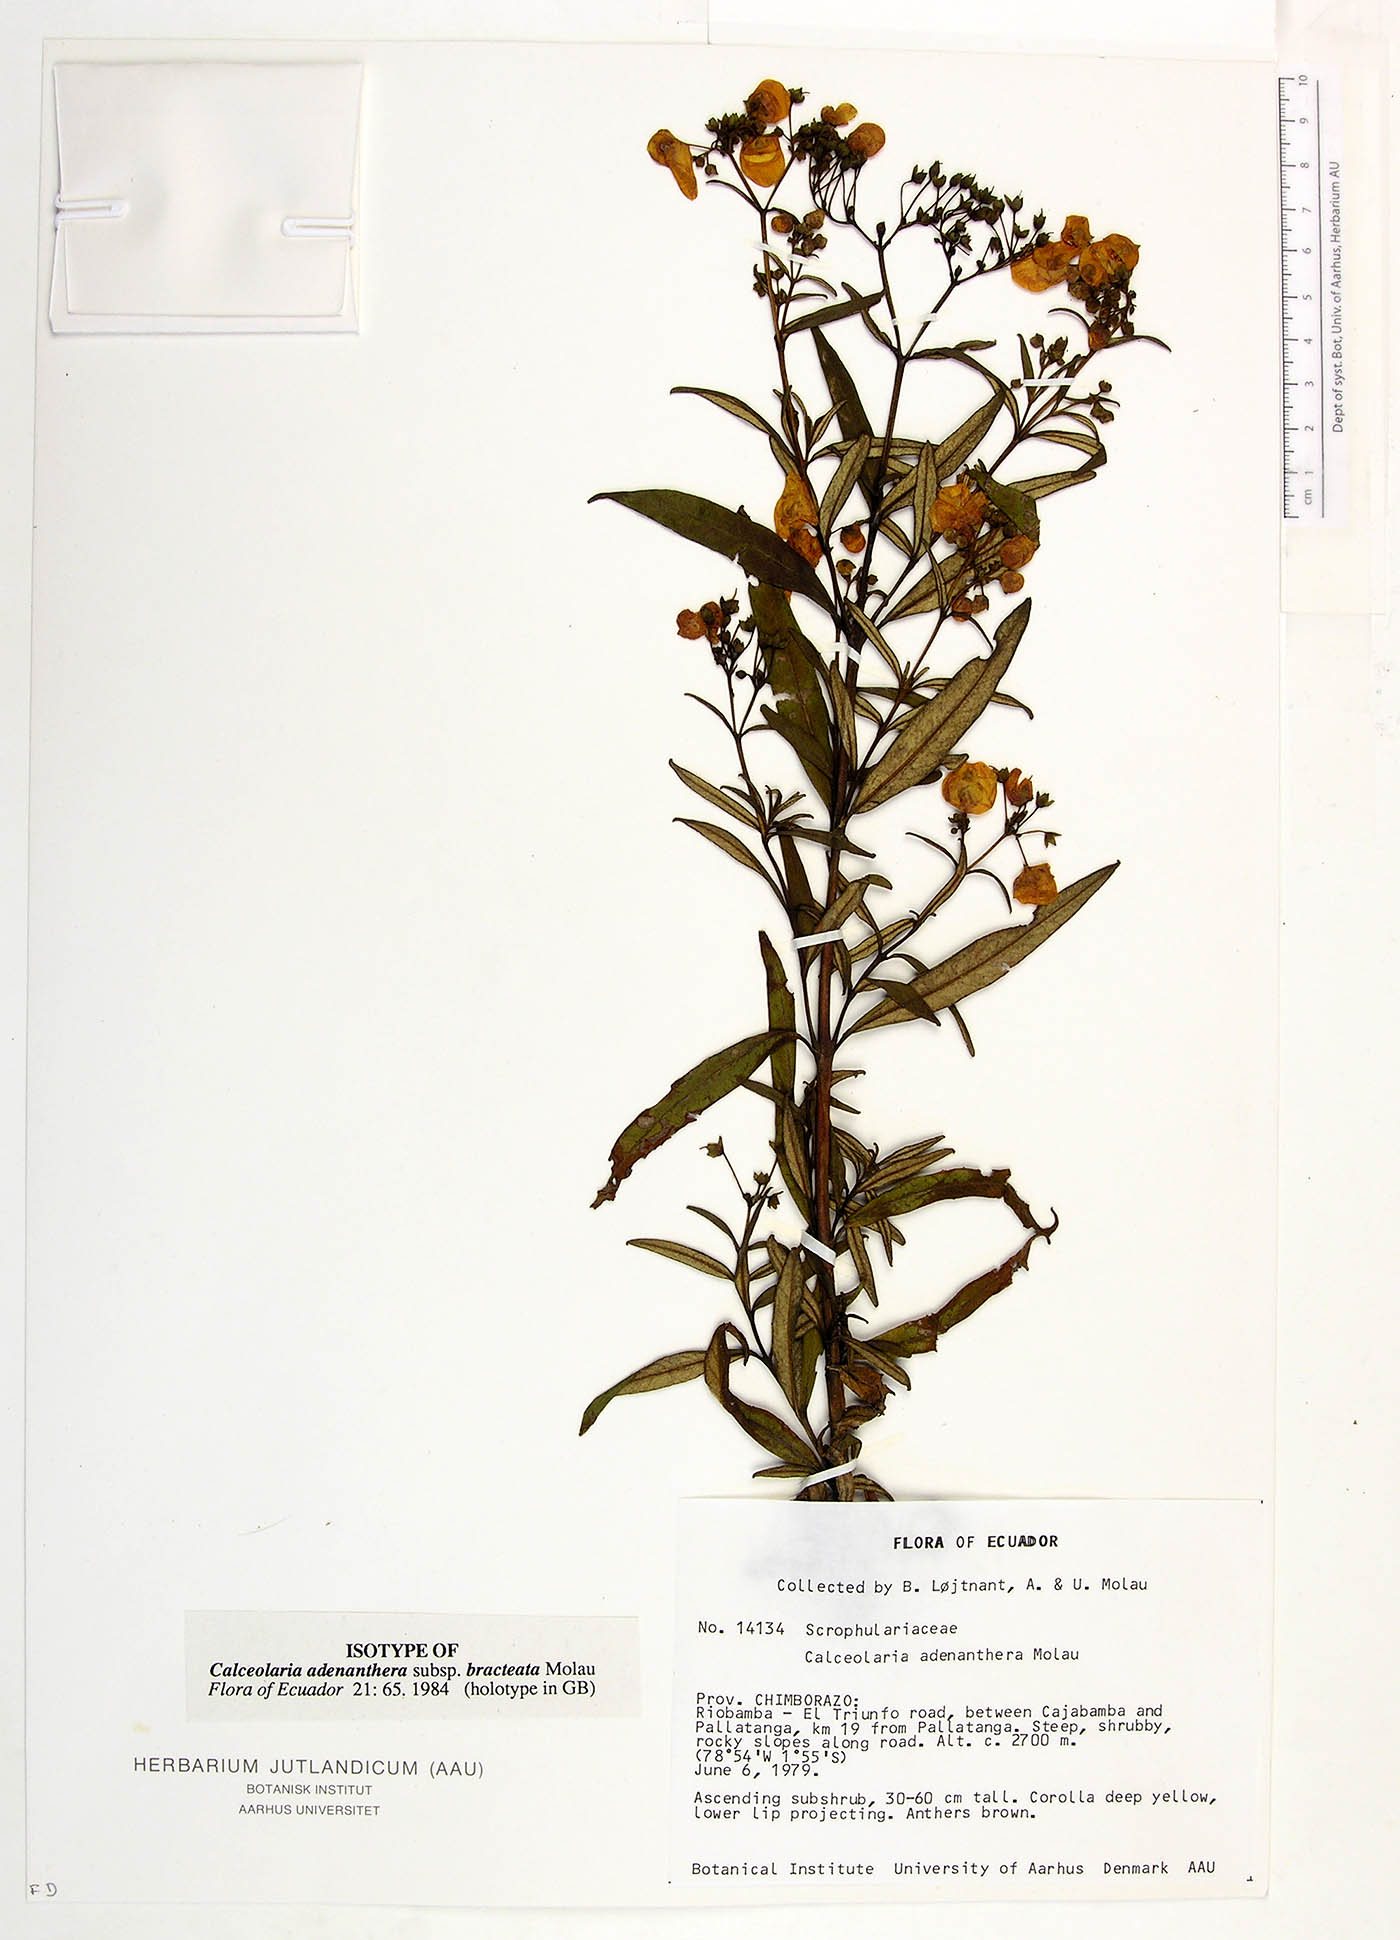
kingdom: Plantae
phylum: Tracheophyta
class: Magnoliopsida
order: Lamiales
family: Calceolariaceae
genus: Calceolaria
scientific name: Calceolaria adenanthera
